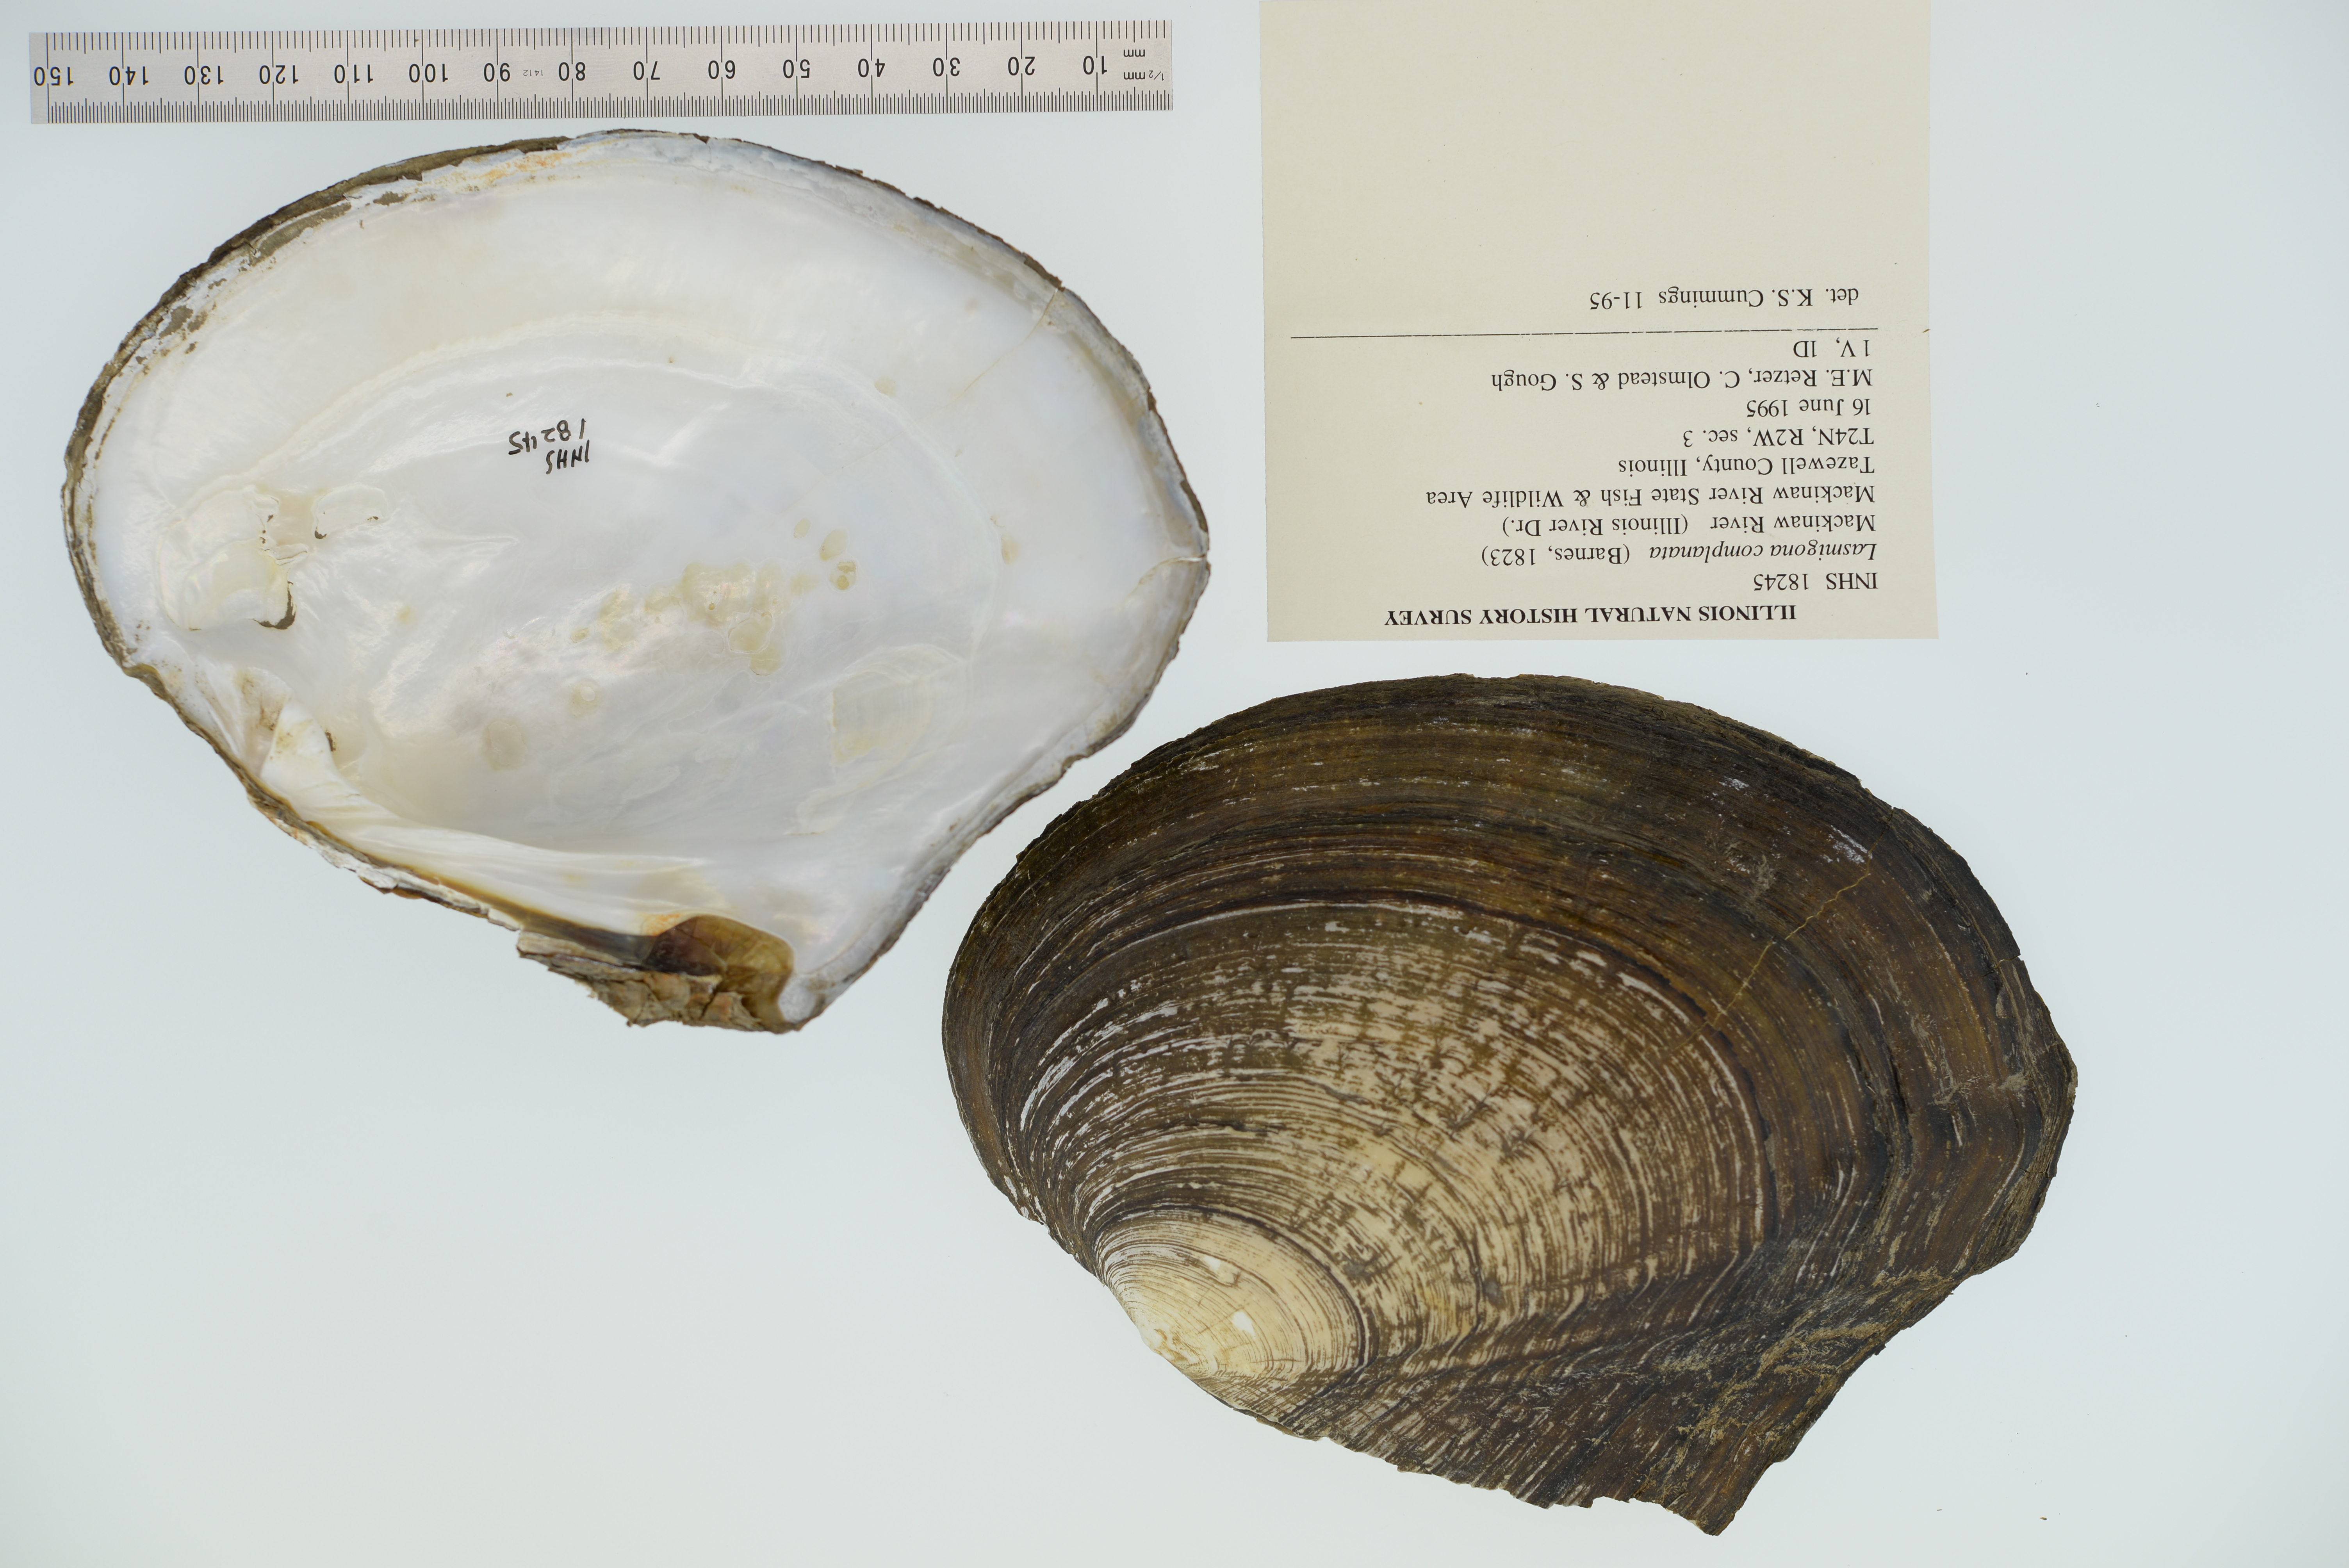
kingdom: Animalia
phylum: Mollusca
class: Bivalvia
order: Unionida
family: Unionidae
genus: Lasmigona
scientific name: Lasmigona complanata
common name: White heelsplitter
